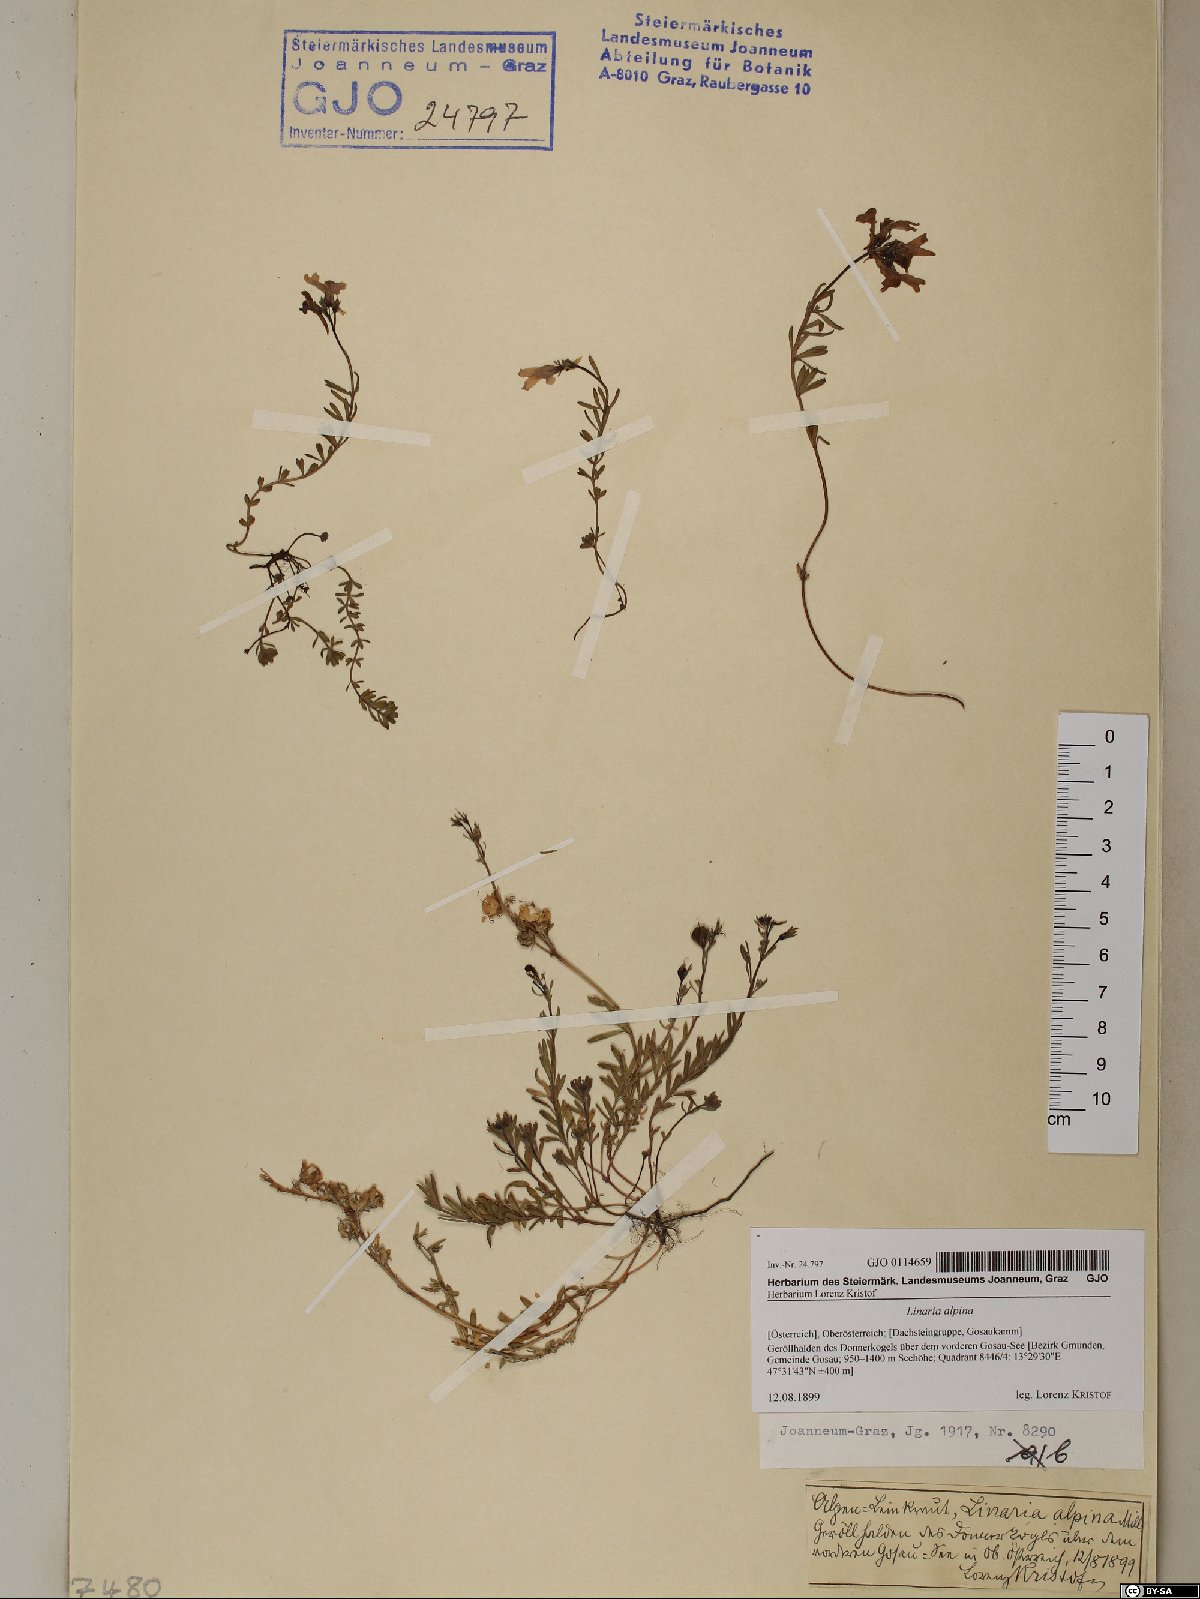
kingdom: Plantae
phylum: Tracheophyta
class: Magnoliopsida
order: Lamiales
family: Plantaginaceae
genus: Linaria
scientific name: Linaria alpina
